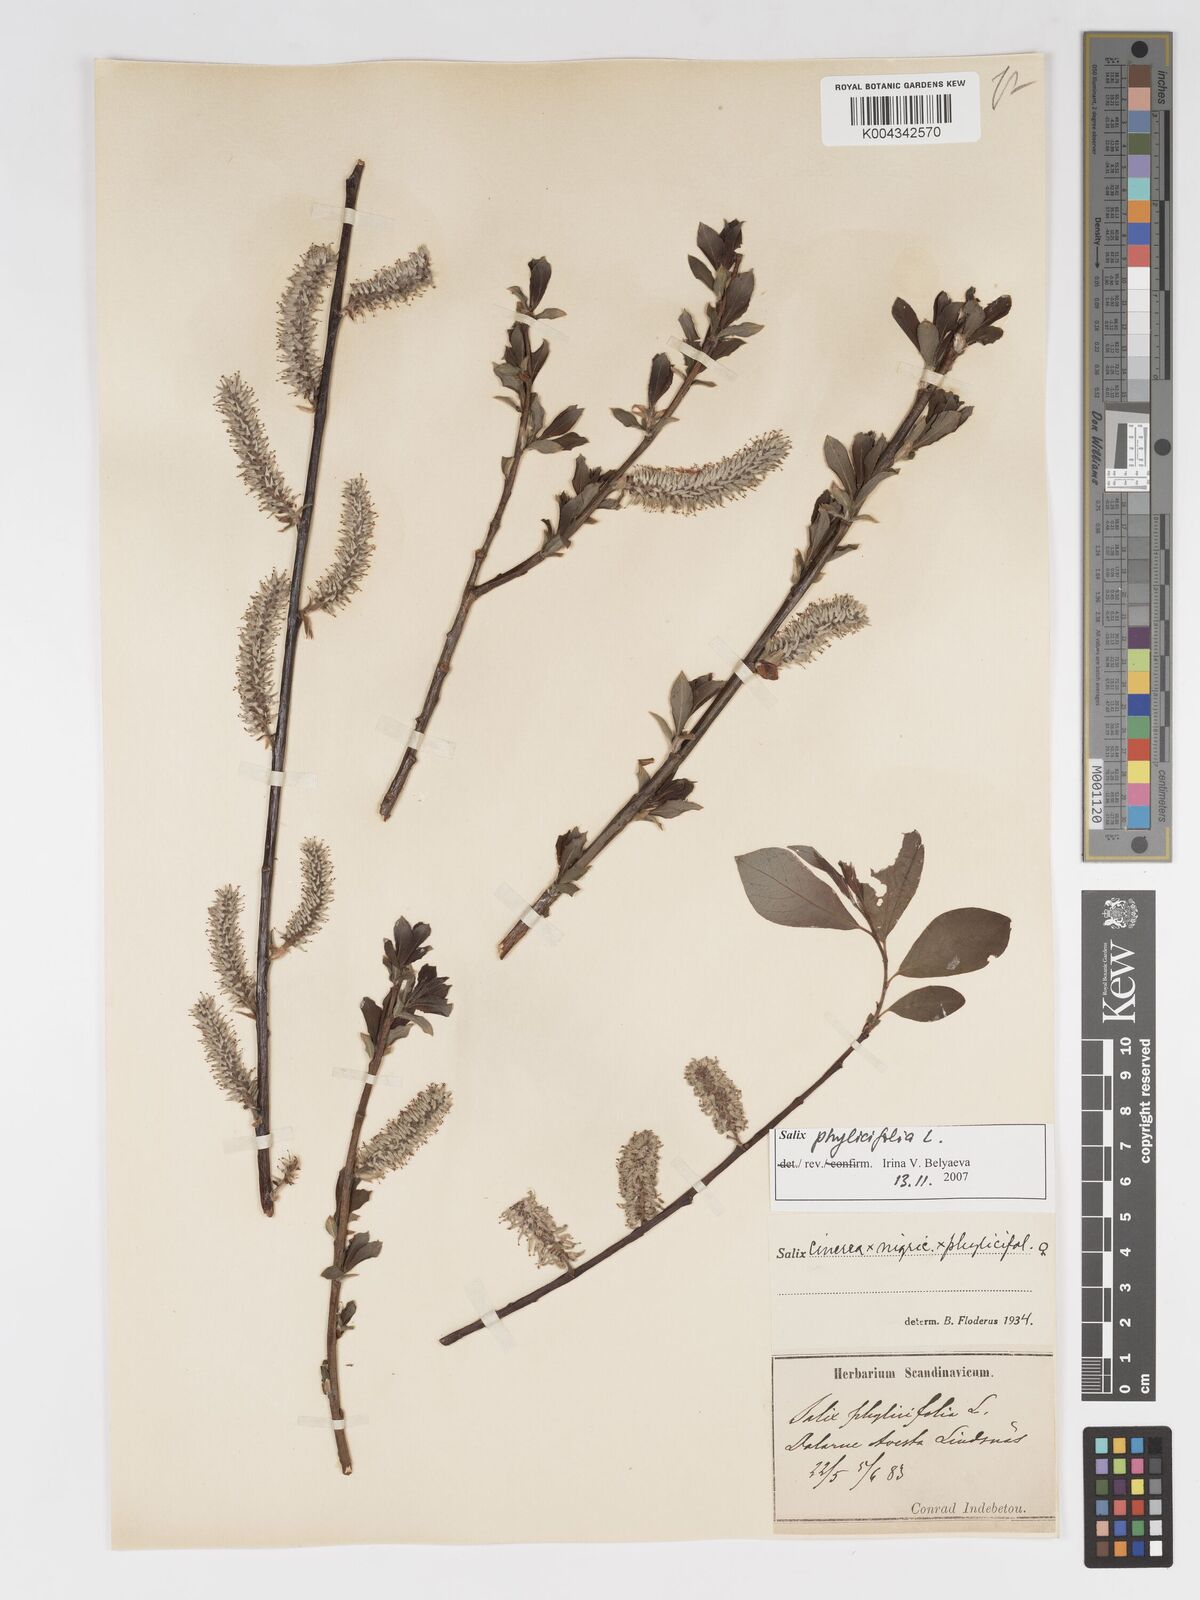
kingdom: Plantae
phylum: Tracheophyta
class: Magnoliopsida
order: Malpighiales
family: Salicaceae
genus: Salix
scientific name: Salix cinerea
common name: Common sallow
